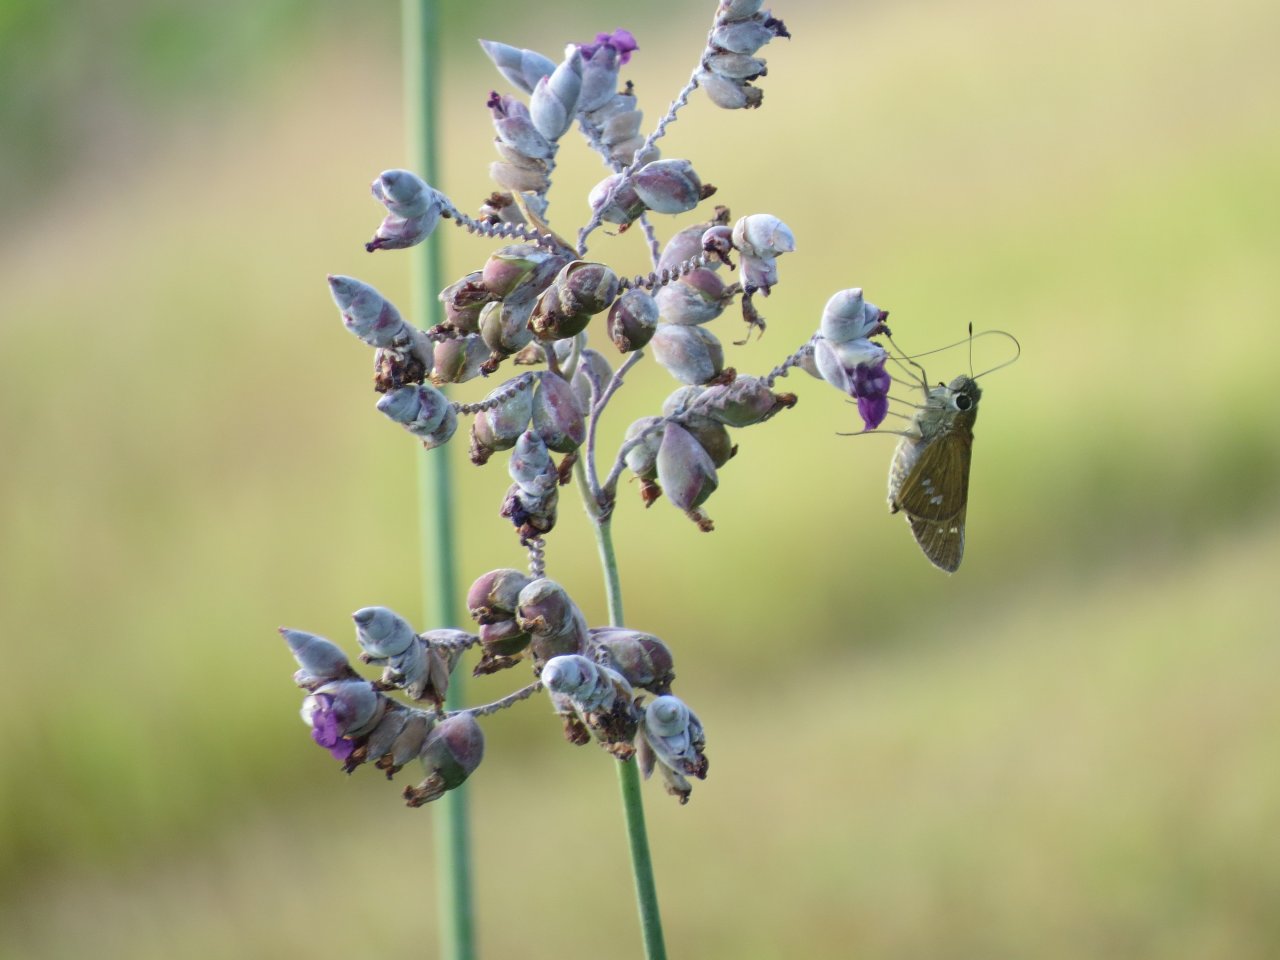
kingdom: Animalia
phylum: Arthropoda
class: Insecta
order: Lepidoptera
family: Hesperiidae
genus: Calpodes
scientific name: Calpodes ethlius
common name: Brazilian Skipper
